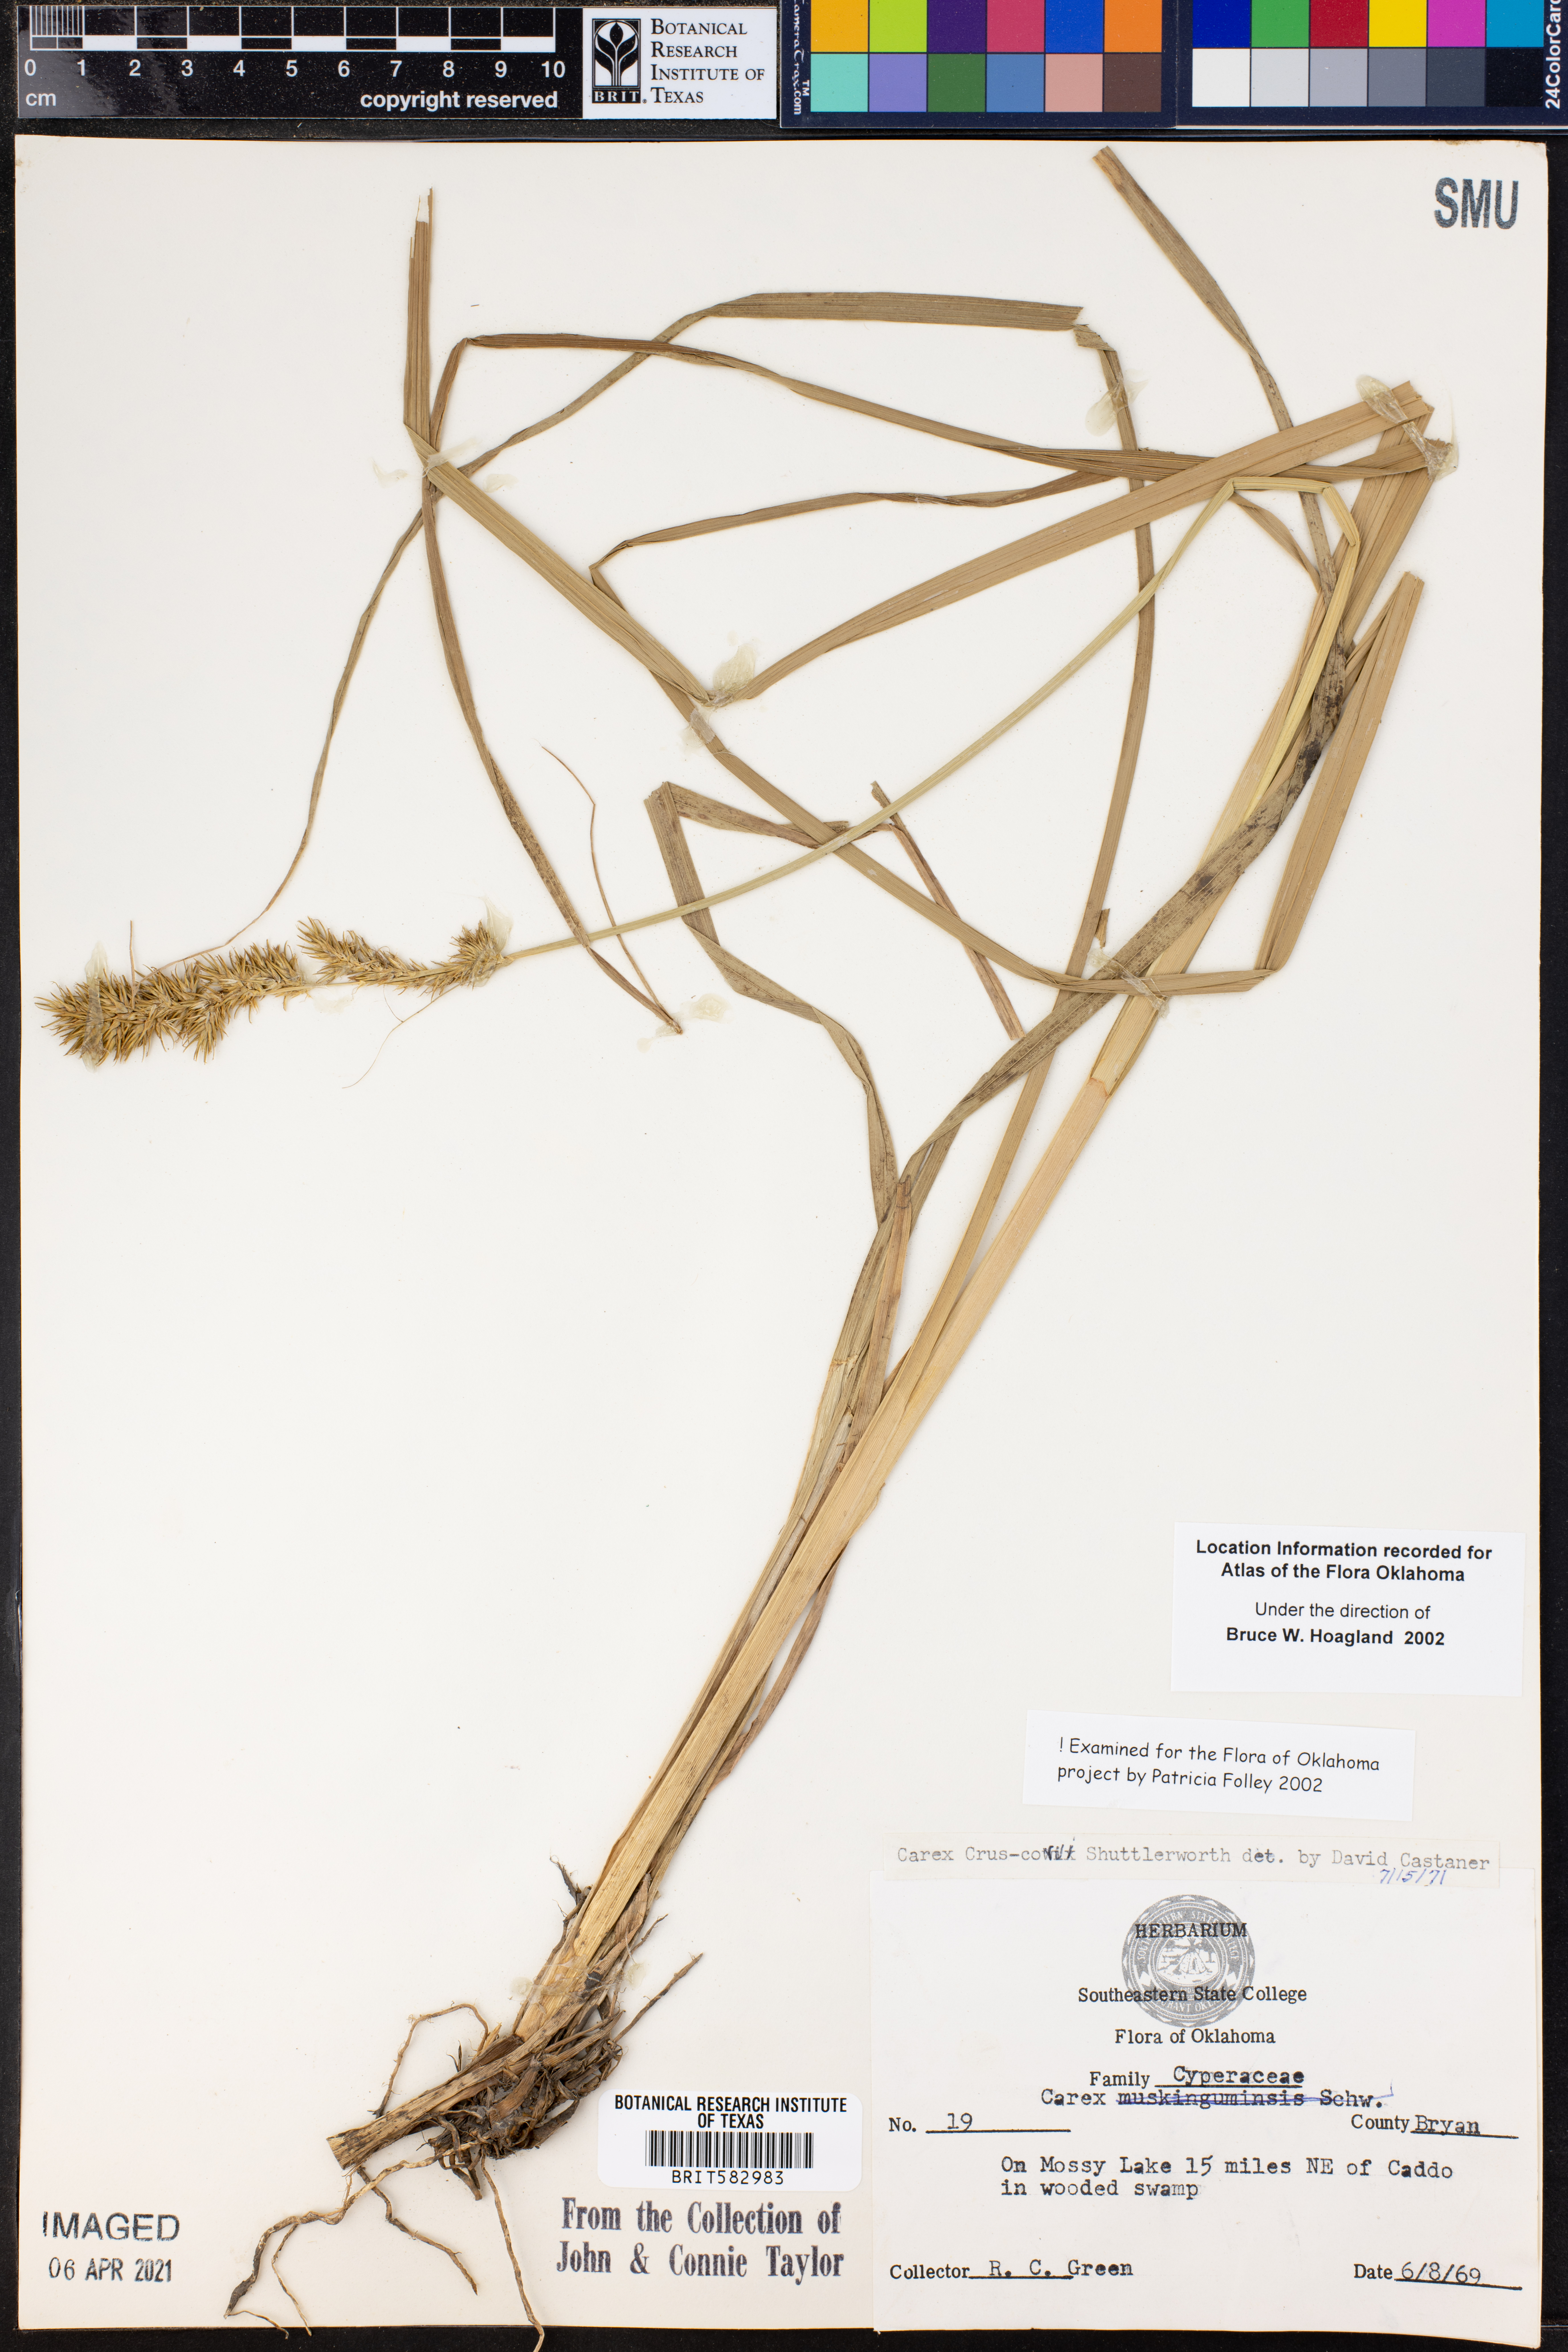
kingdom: Plantae
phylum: Tracheophyta
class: Liliopsida
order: Poales
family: Cyperaceae
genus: Carex
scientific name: Carex crus-corvi
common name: Crow-spur sedge
